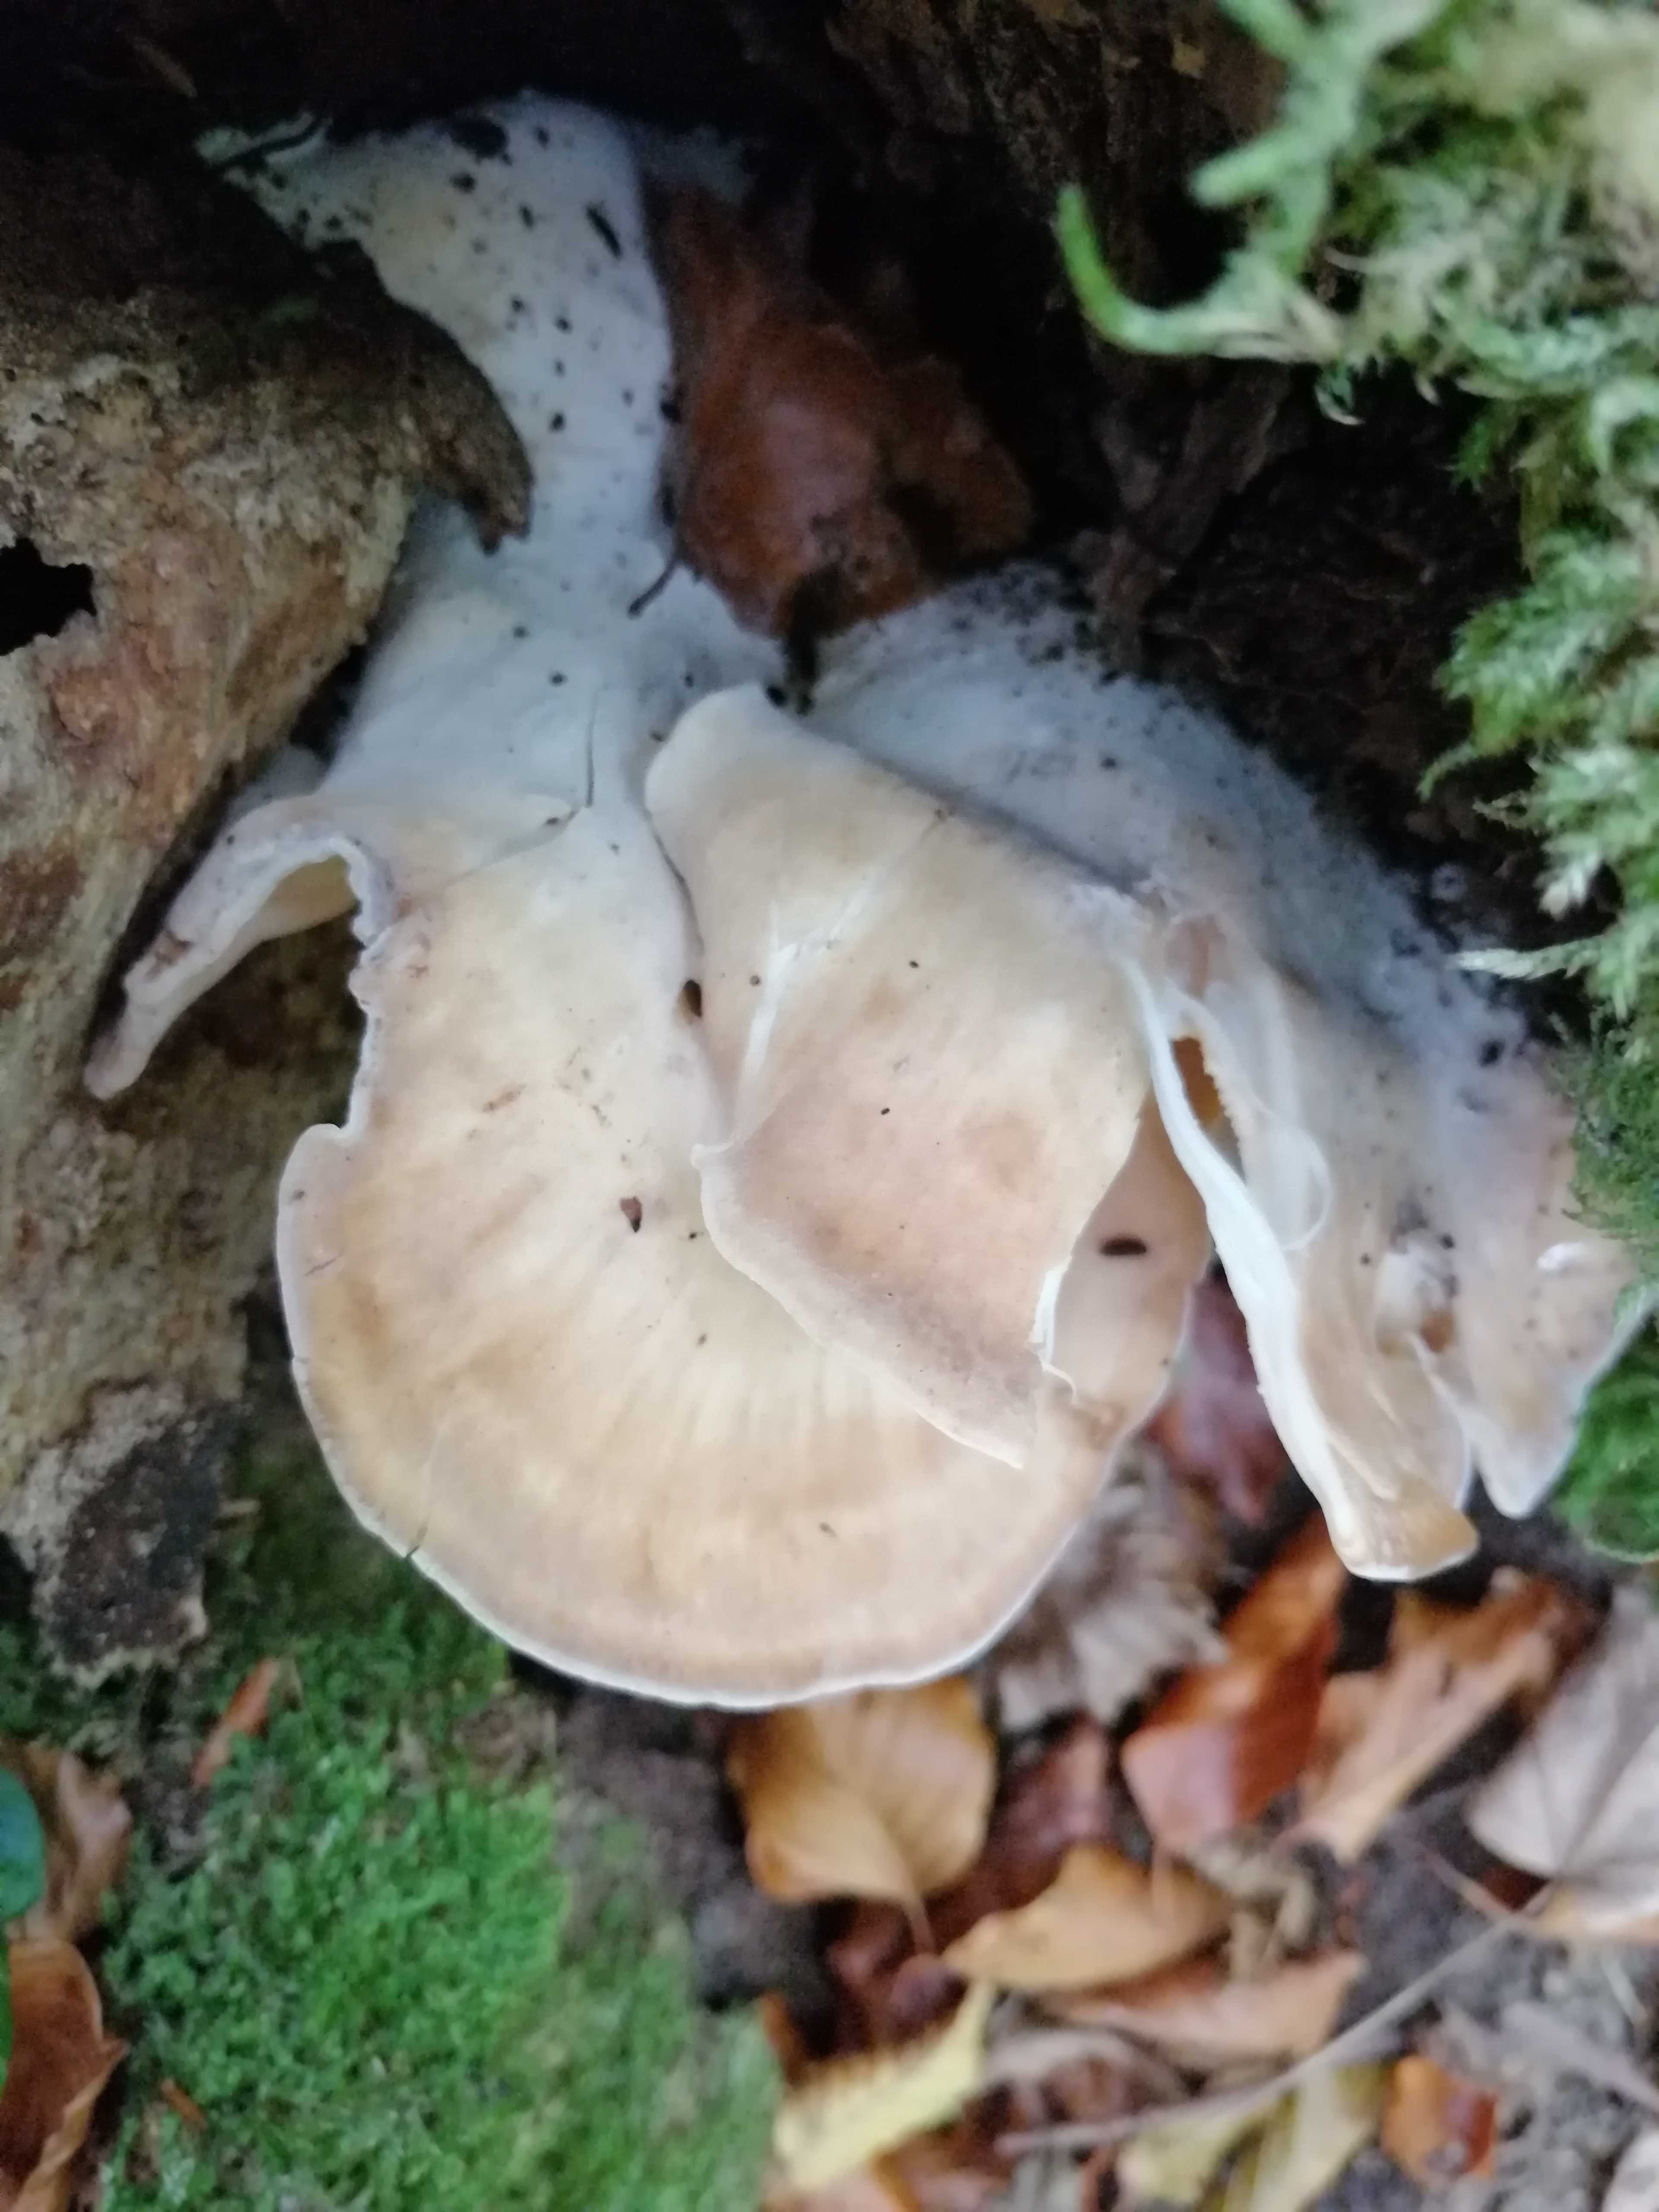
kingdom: Fungi
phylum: Basidiomycota
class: Agaricomycetes
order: Polyporales
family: Meripilaceae
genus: Meripilus
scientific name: Meripilus giganteus
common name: kæmpeporesvamp
